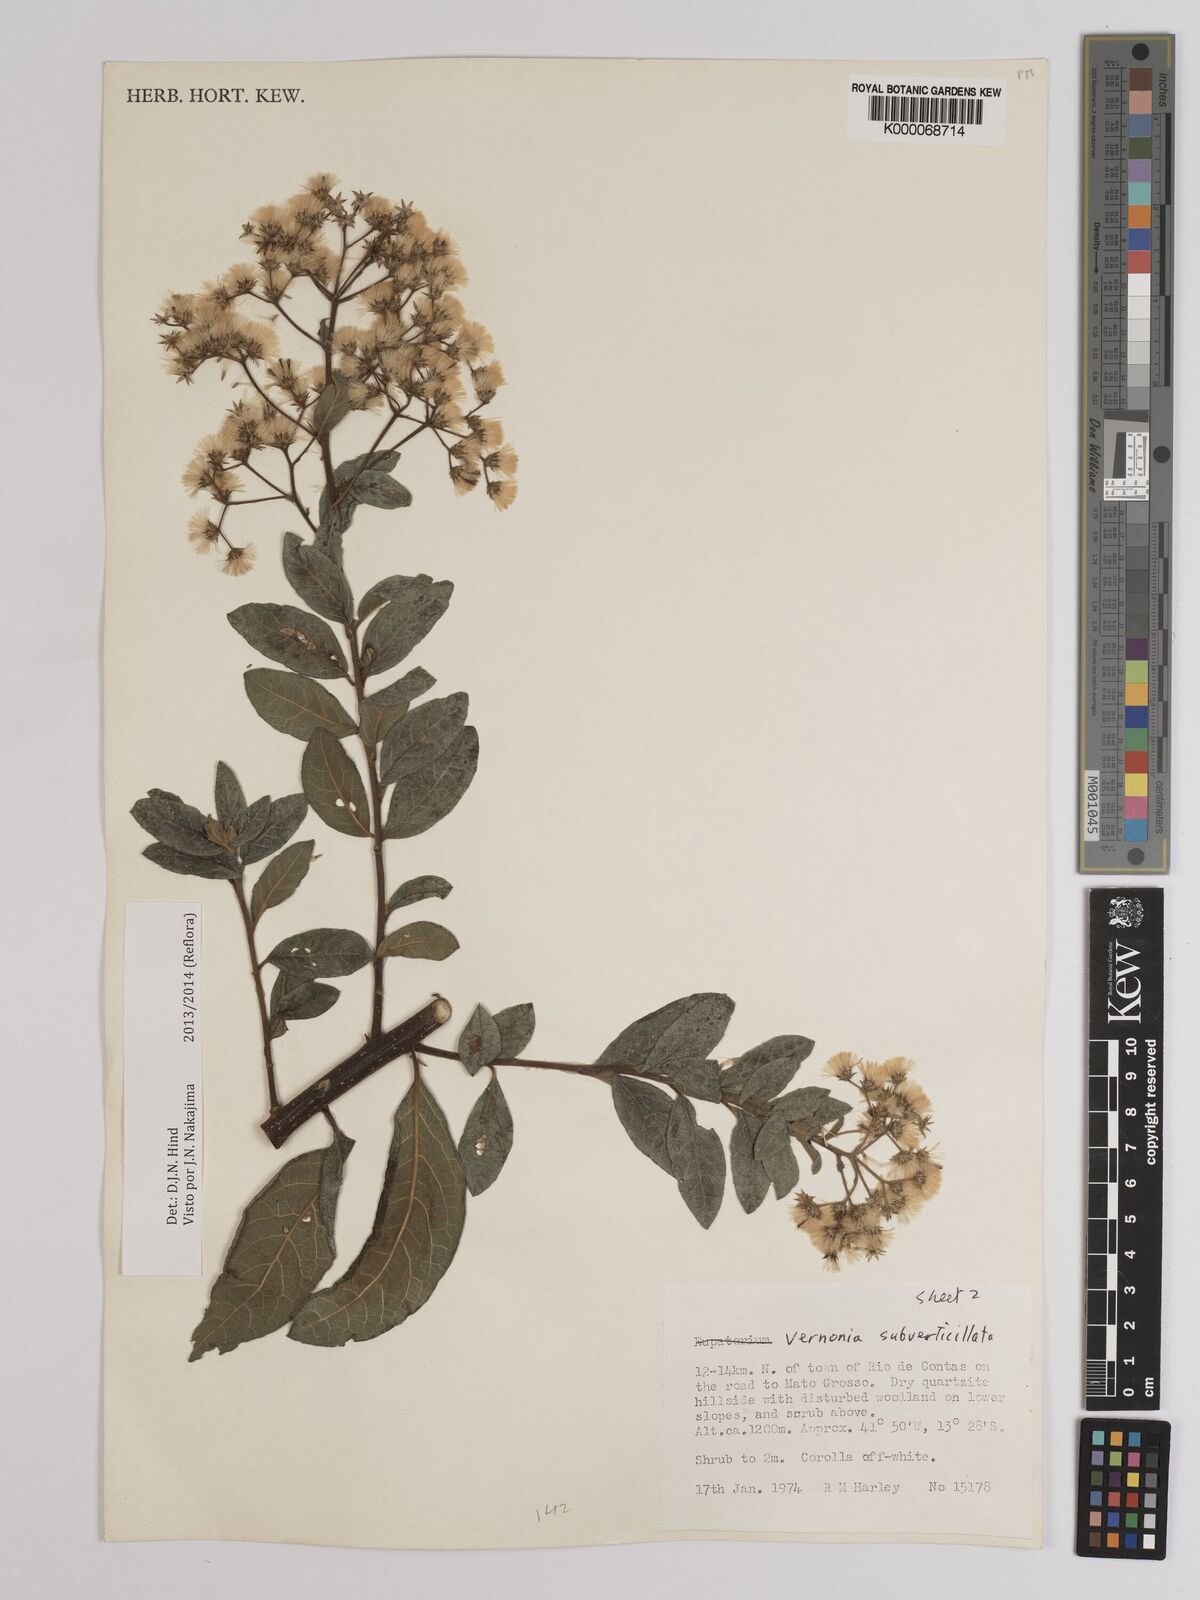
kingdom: Plantae
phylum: Tracheophyta
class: Magnoliopsida
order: Asterales
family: Asteraceae
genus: Vernonia
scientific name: Vernonia
